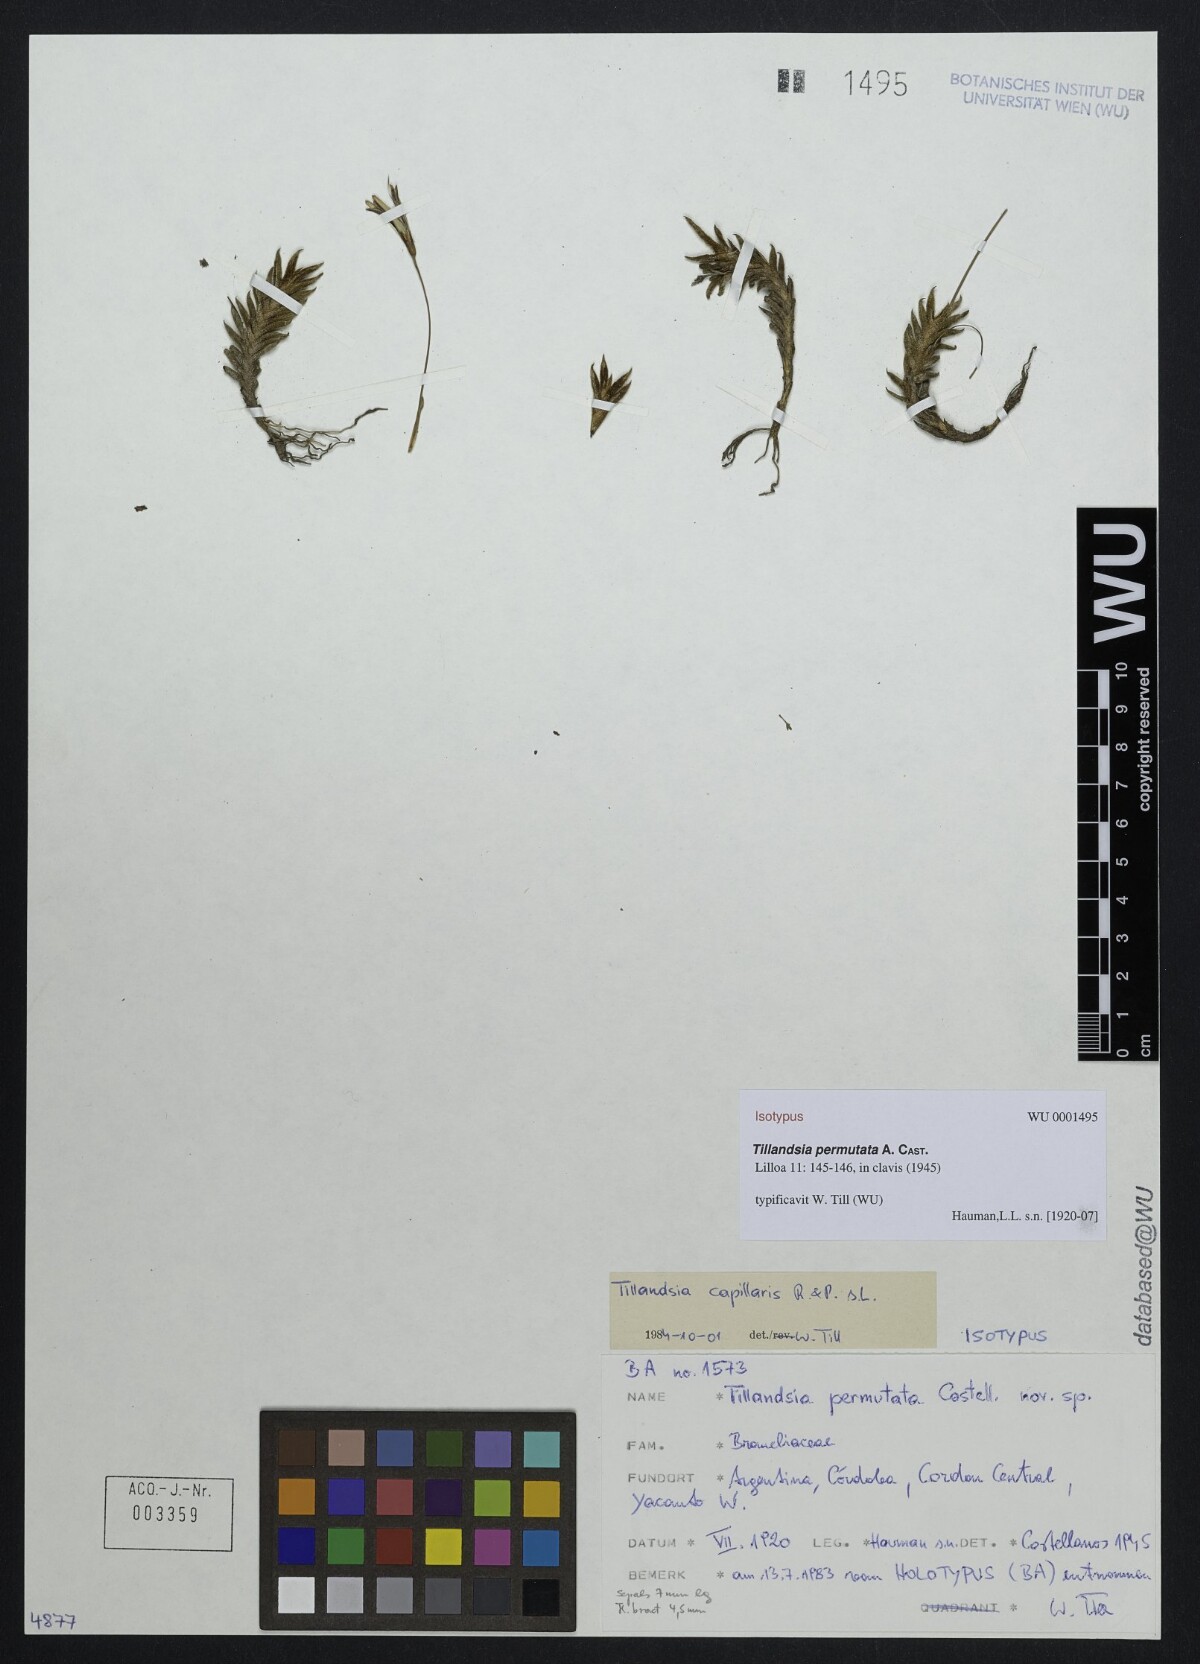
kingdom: Plantae
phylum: Tracheophyta
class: Liliopsida
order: Poales
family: Bromeliaceae
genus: Tillandsia
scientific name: Tillandsia capillaris
